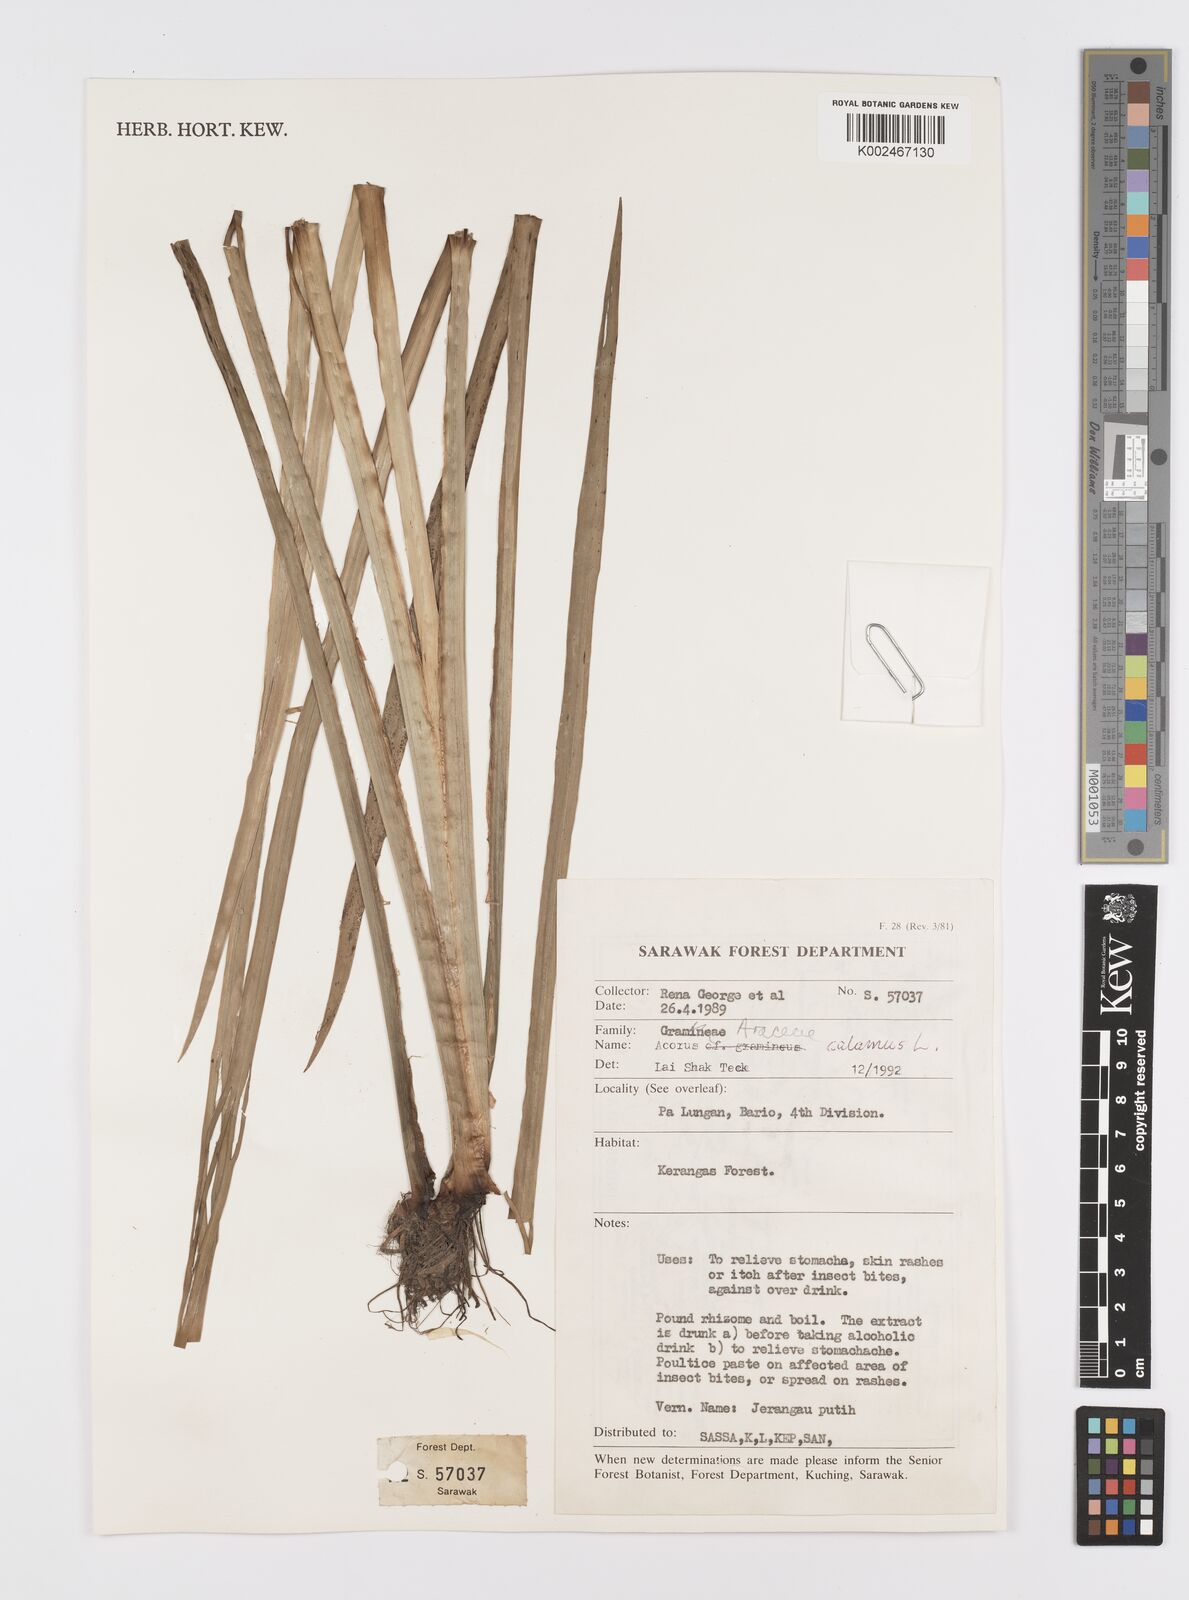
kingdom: Plantae
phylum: Tracheophyta
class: Liliopsida
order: Acorales
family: Acoraceae
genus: Acorus
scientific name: Acorus calamus
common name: Sweet-flag
